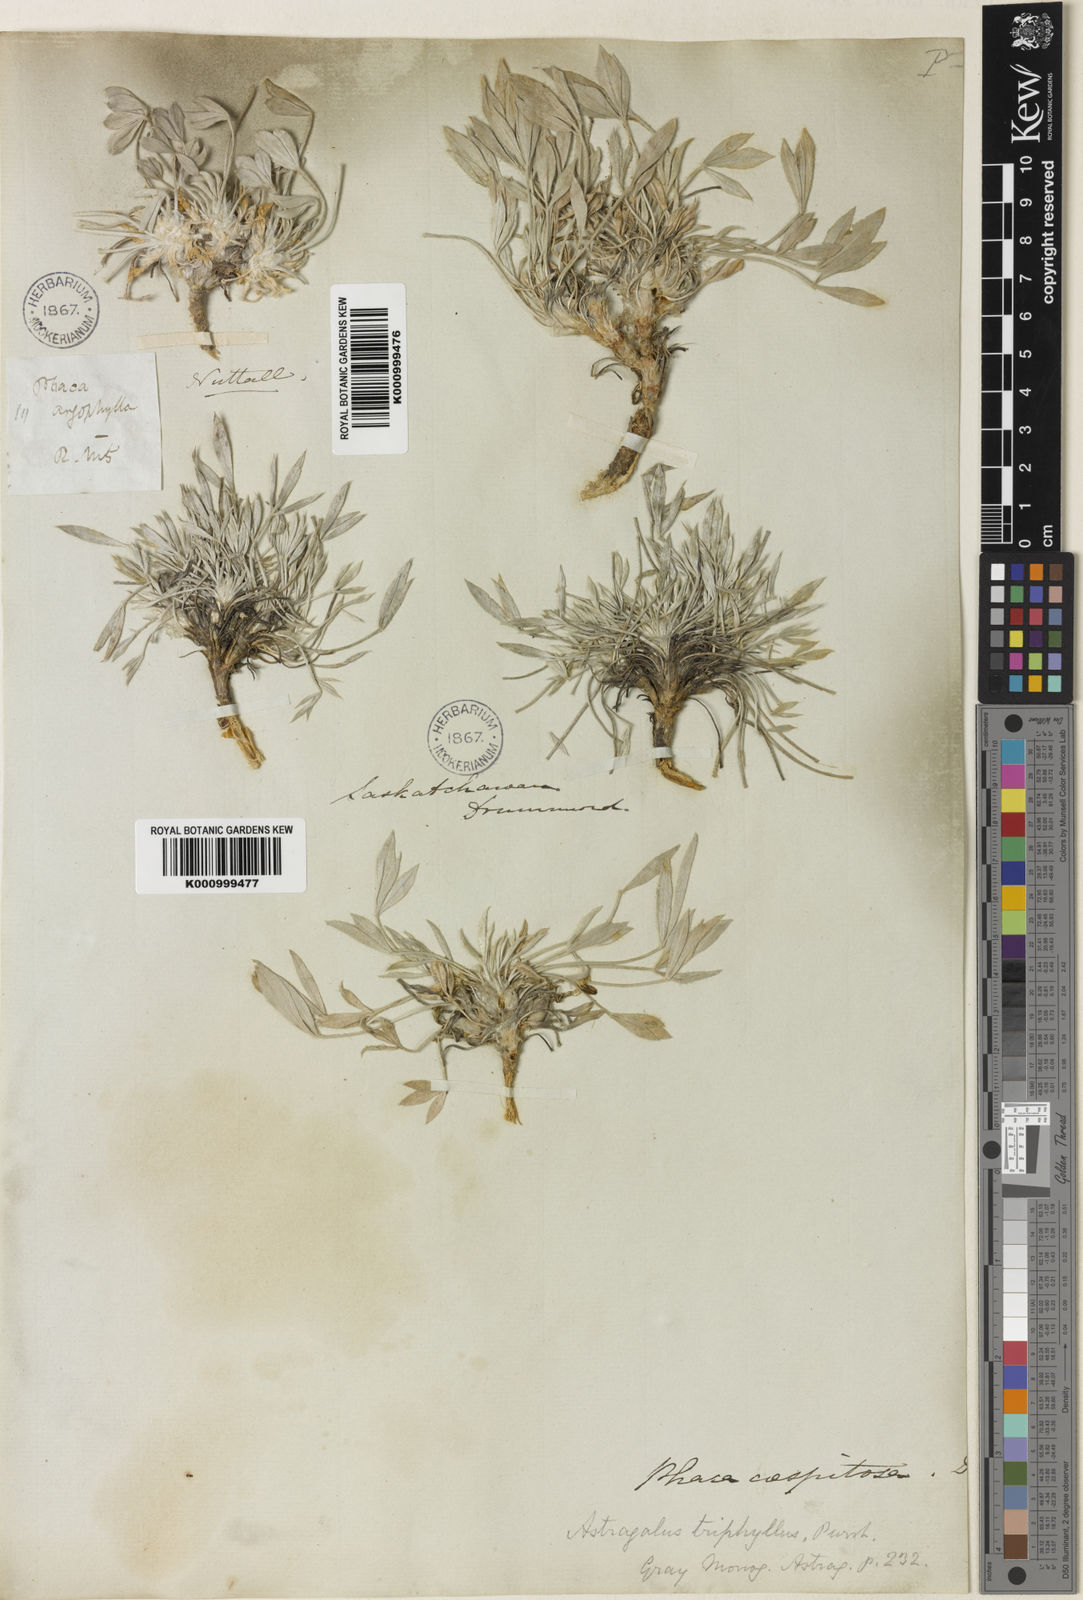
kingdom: Plantae
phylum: Tracheophyta
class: Magnoliopsida
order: Fabales
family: Fabaceae
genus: Astragalus
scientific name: Astragalus gilviflorus
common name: Cushion milk-vetch
